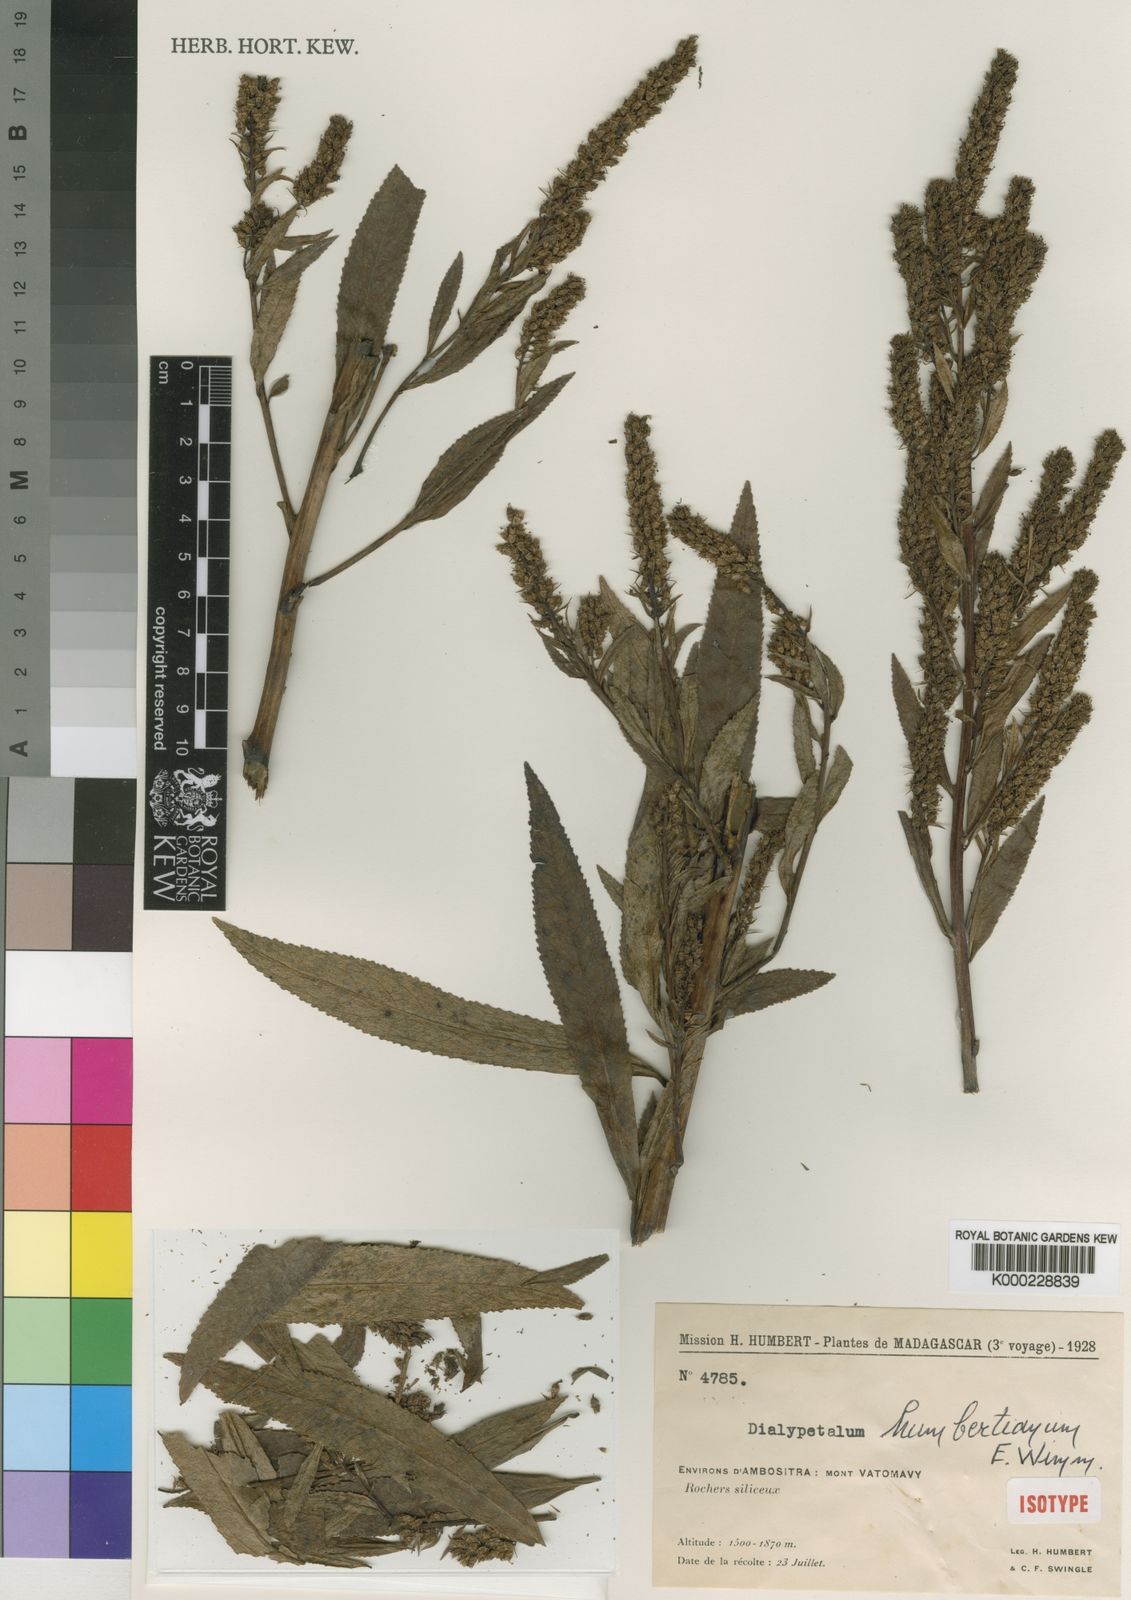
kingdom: Plantae
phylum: Tracheophyta
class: Magnoliopsida
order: Asterales
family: Campanulaceae
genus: Dialypetalum
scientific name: Dialypetalum humbertianum
